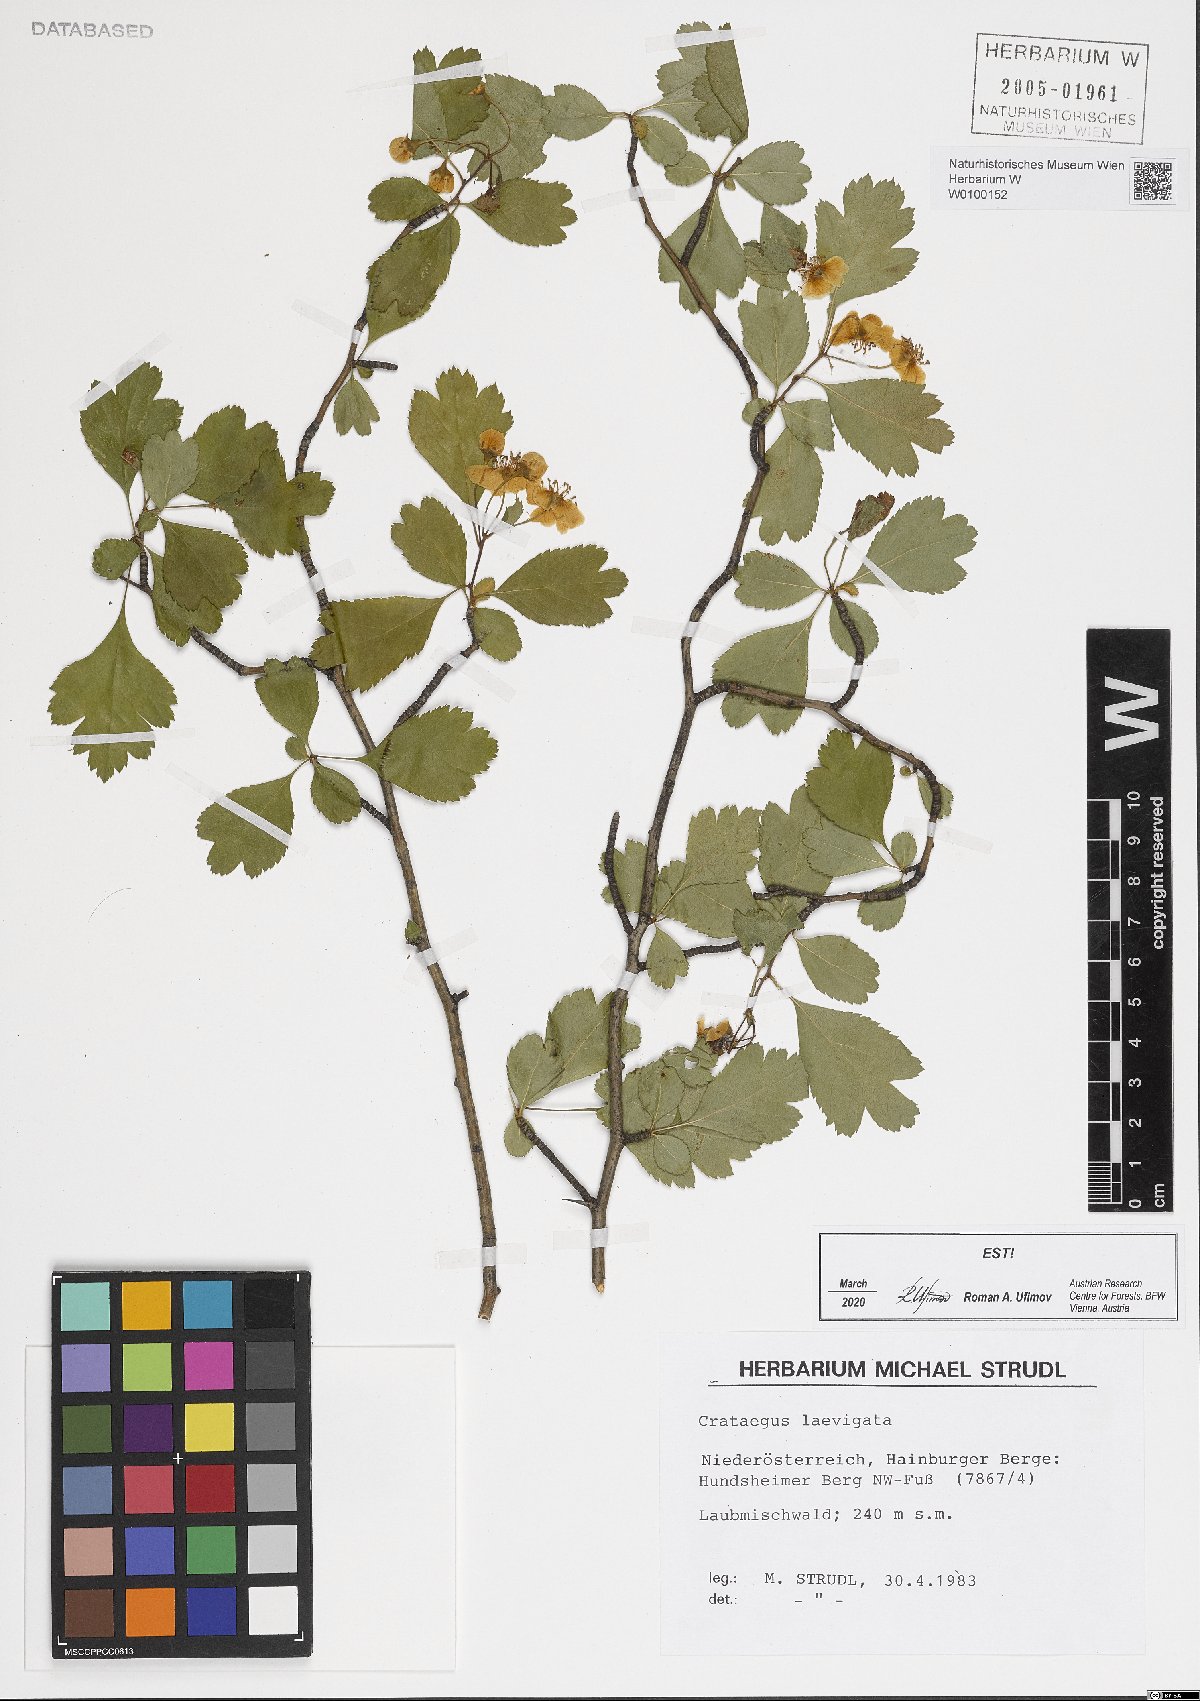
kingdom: Plantae
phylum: Tracheophyta
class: Magnoliopsida
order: Rosales
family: Rosaceae
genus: Crataegus
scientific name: Crataegus laevigata
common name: Midland hawthorn
